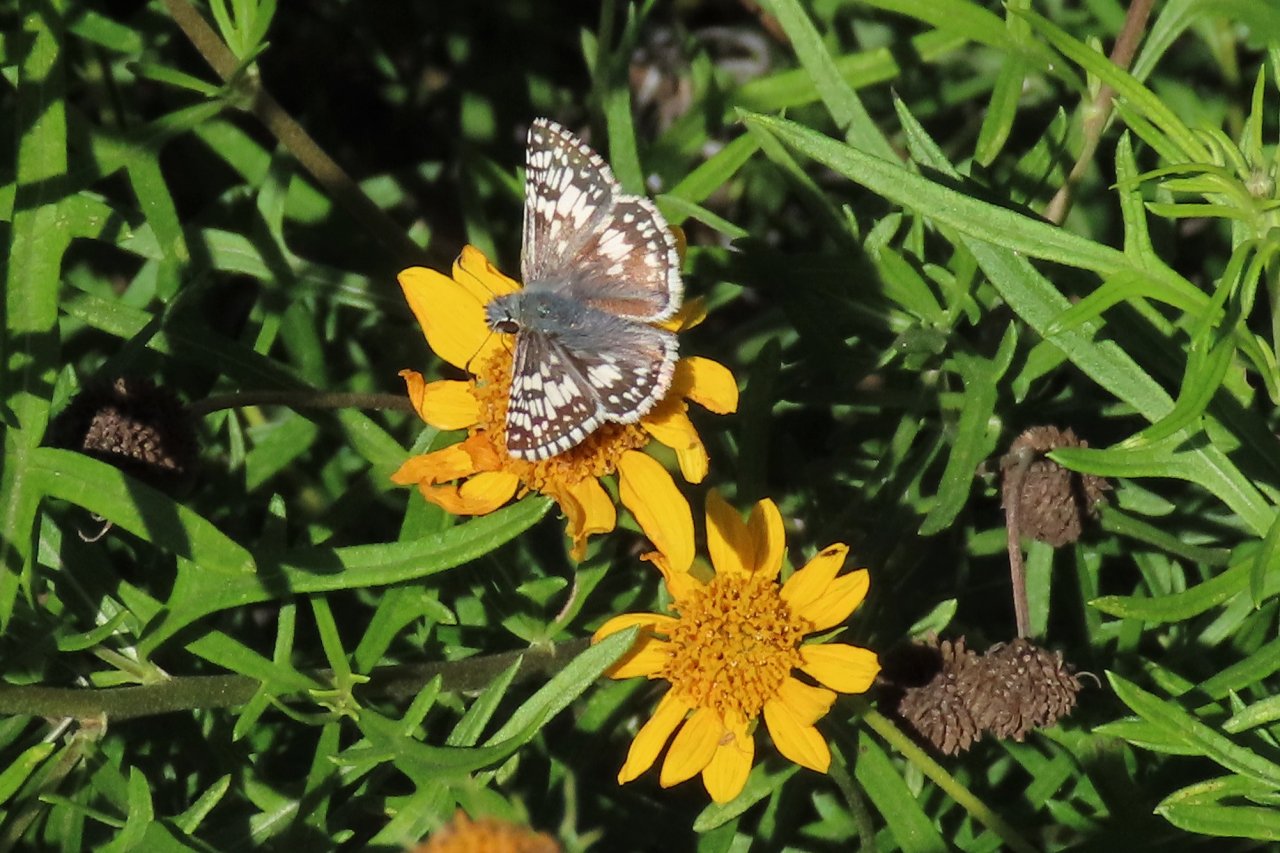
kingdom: Animalia
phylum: Arthropoda
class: Insecta
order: Lepidoptera
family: Hesperiidae
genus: Pyrgus
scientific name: Pyrgus communis
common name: White Checkered-Skipper
